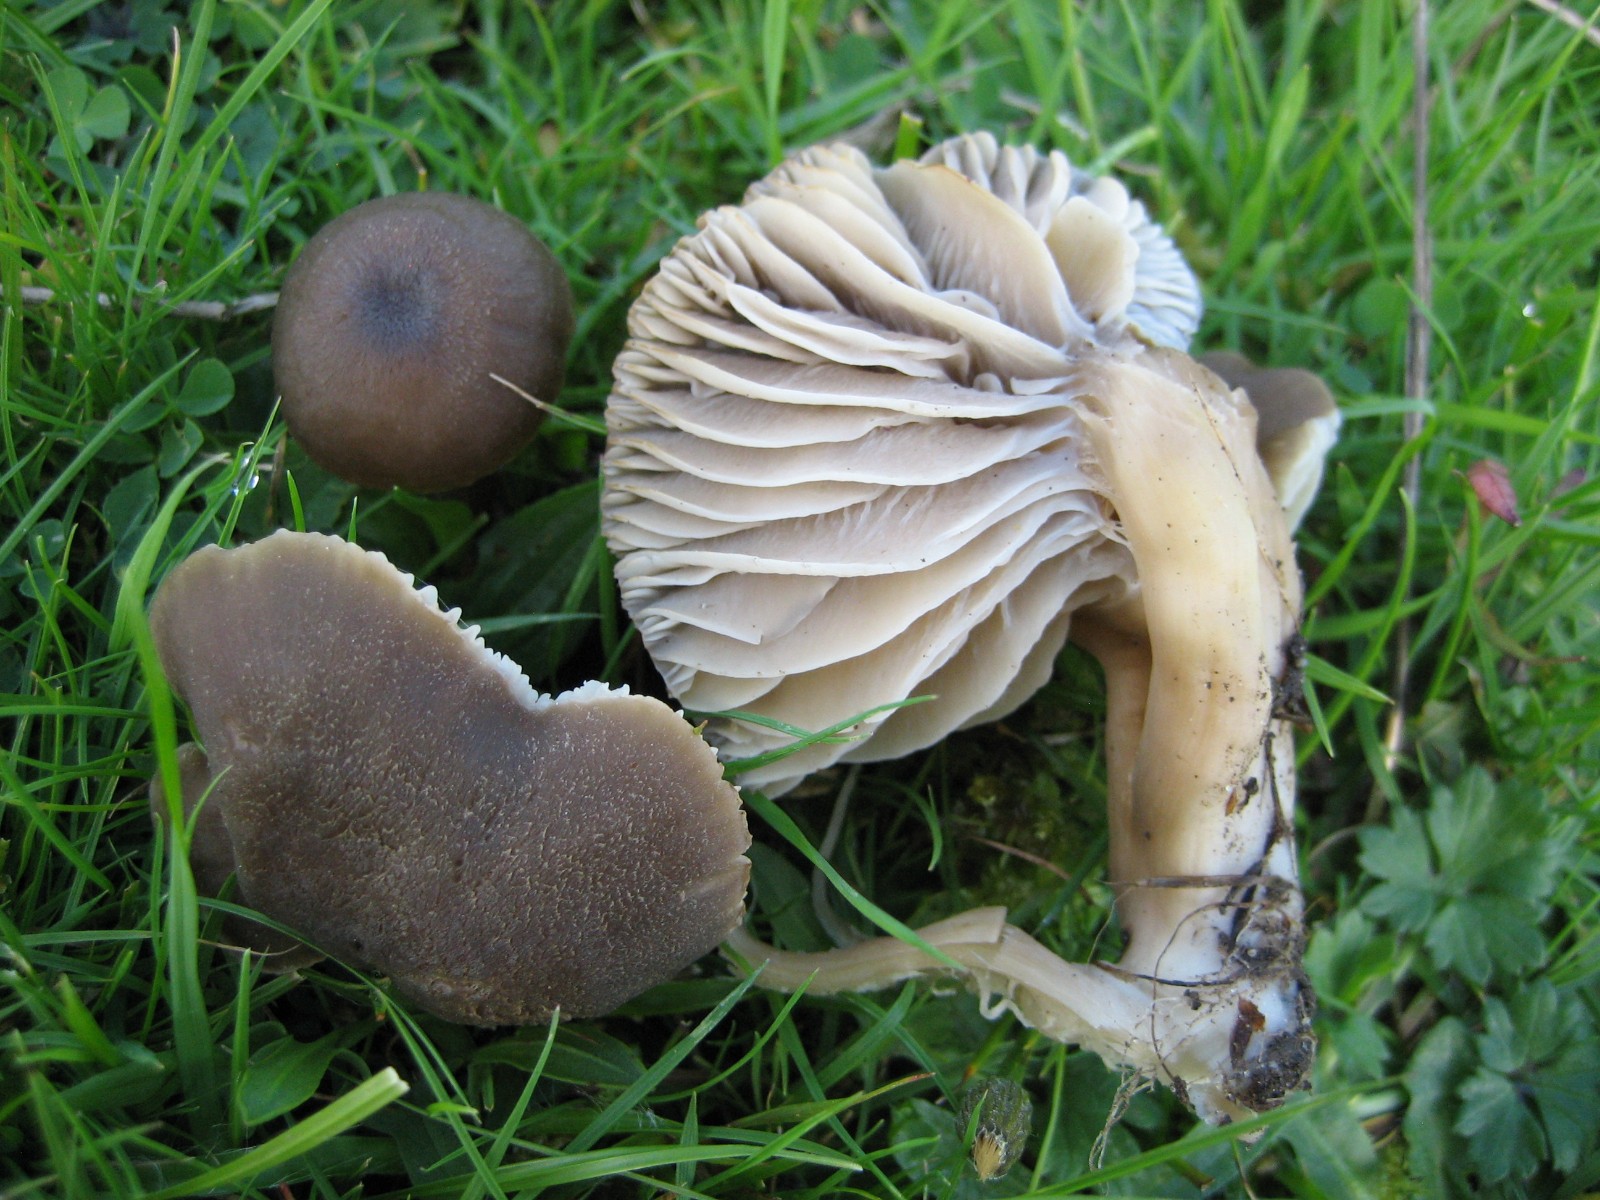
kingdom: Fungi
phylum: Basidiomycota
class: Agaricomycetes
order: Agaricales
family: Hygrophoraceae
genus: Neohygrocybe
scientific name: Neohygrocybe nitrata
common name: stinkende vokshat
